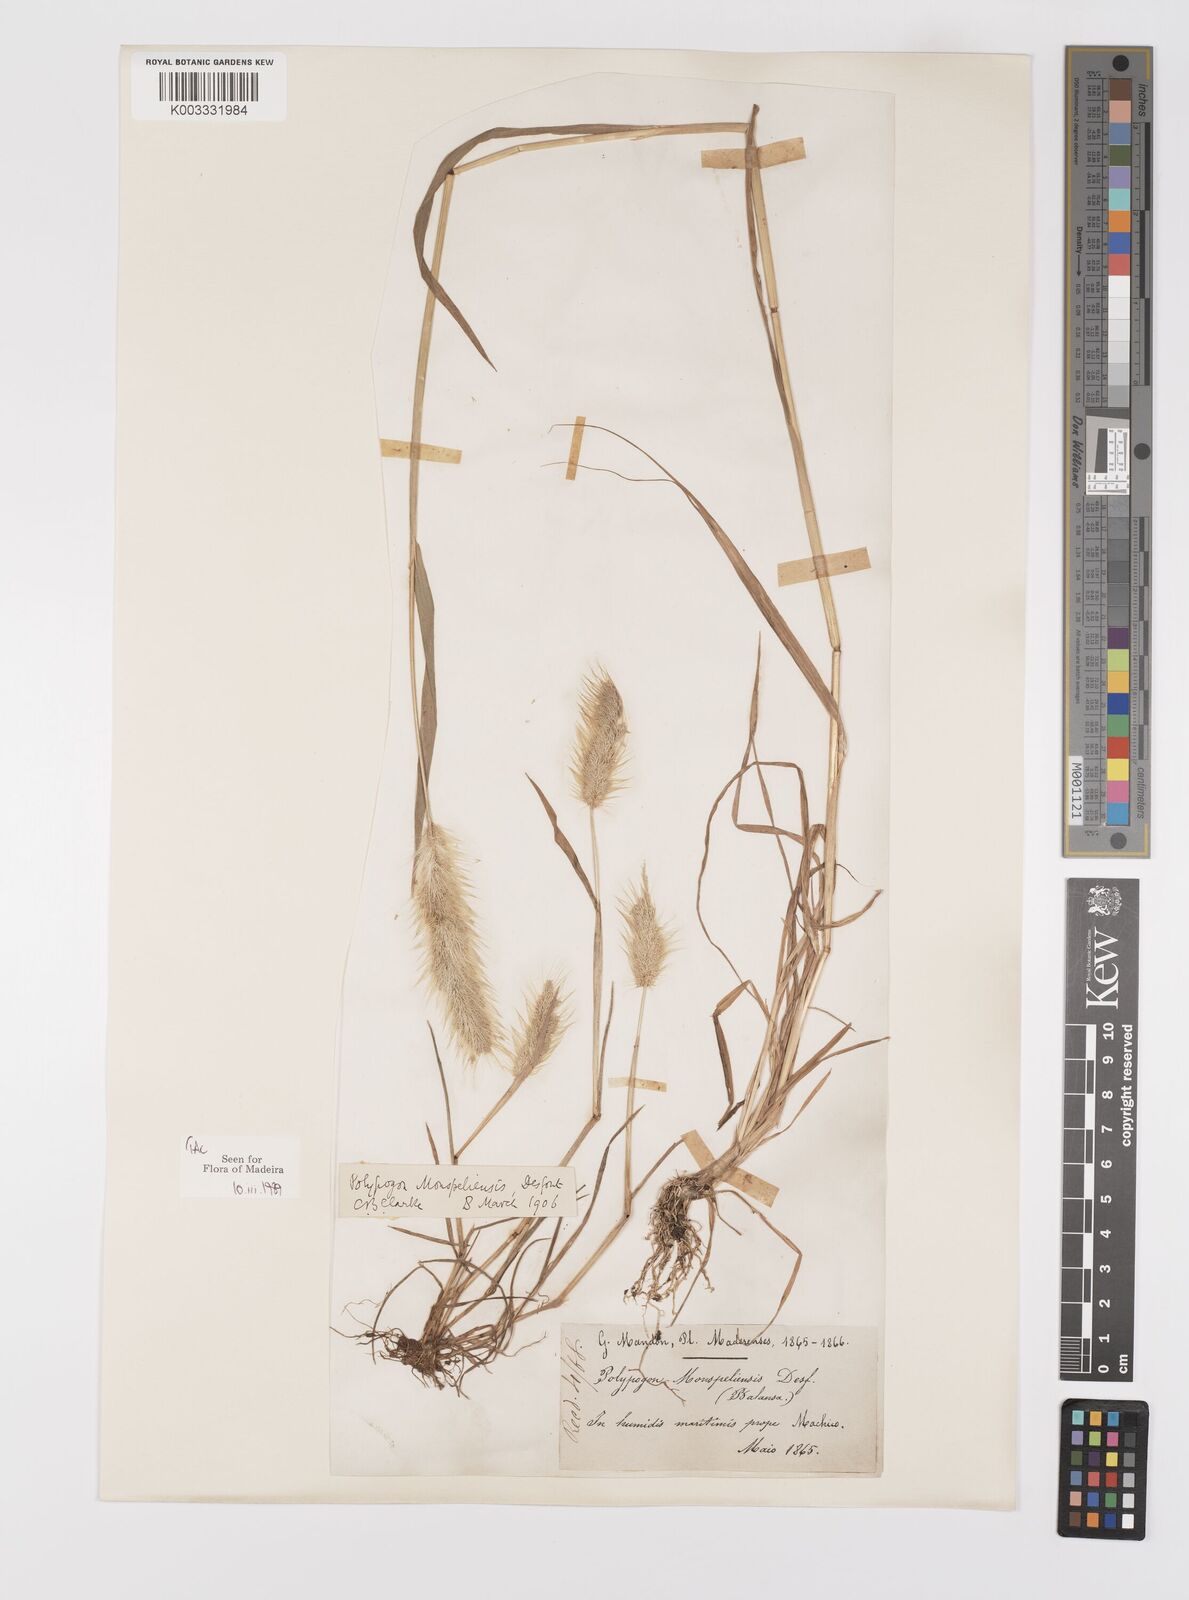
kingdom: Plantae
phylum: Tracheophyta
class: Liliopsida
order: Poales
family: Poaceae
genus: Polypogon
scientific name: Polypogon monspeliensis
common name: Annual rabbitsfoot grass
